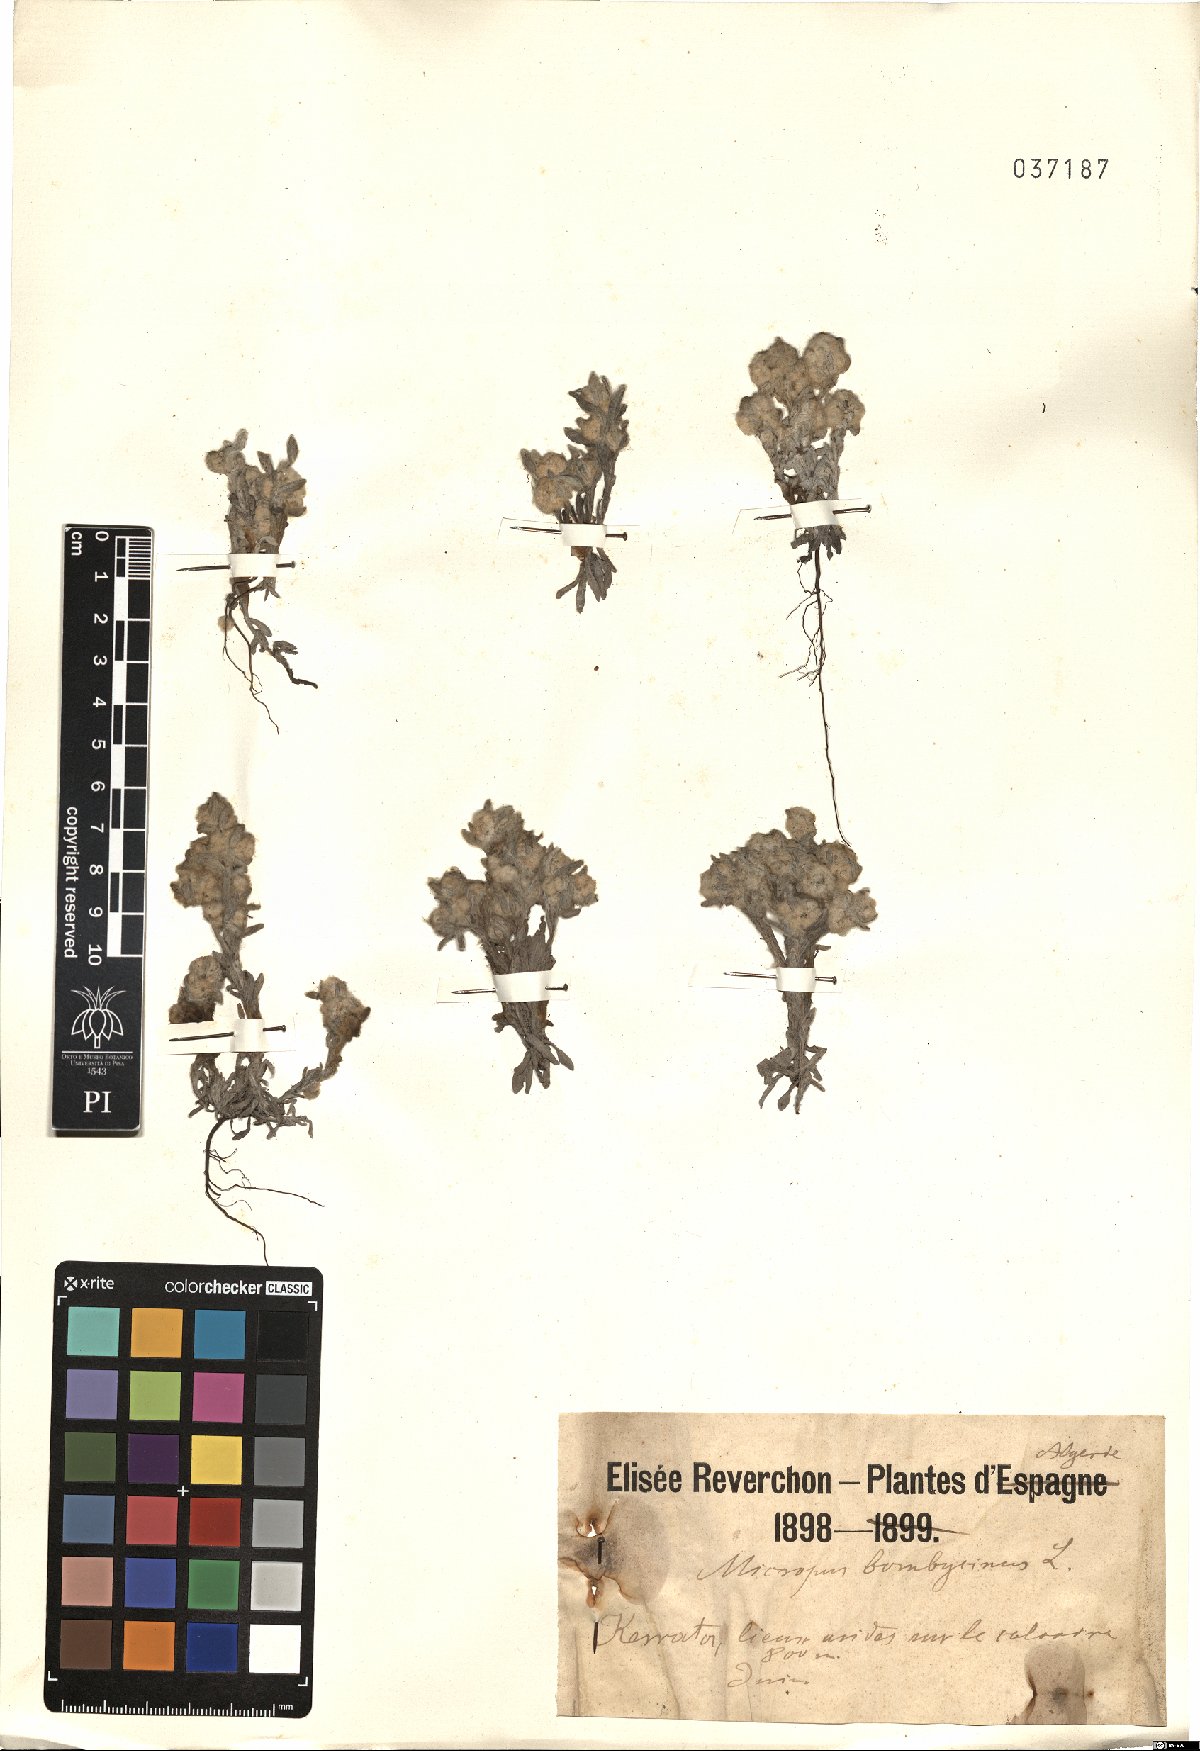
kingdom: Plantae
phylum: Tracheophyta
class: Magnoliopsida
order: Asterales
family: Asteraceae
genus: Bombycilaena
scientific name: Bombycilaena discolor
